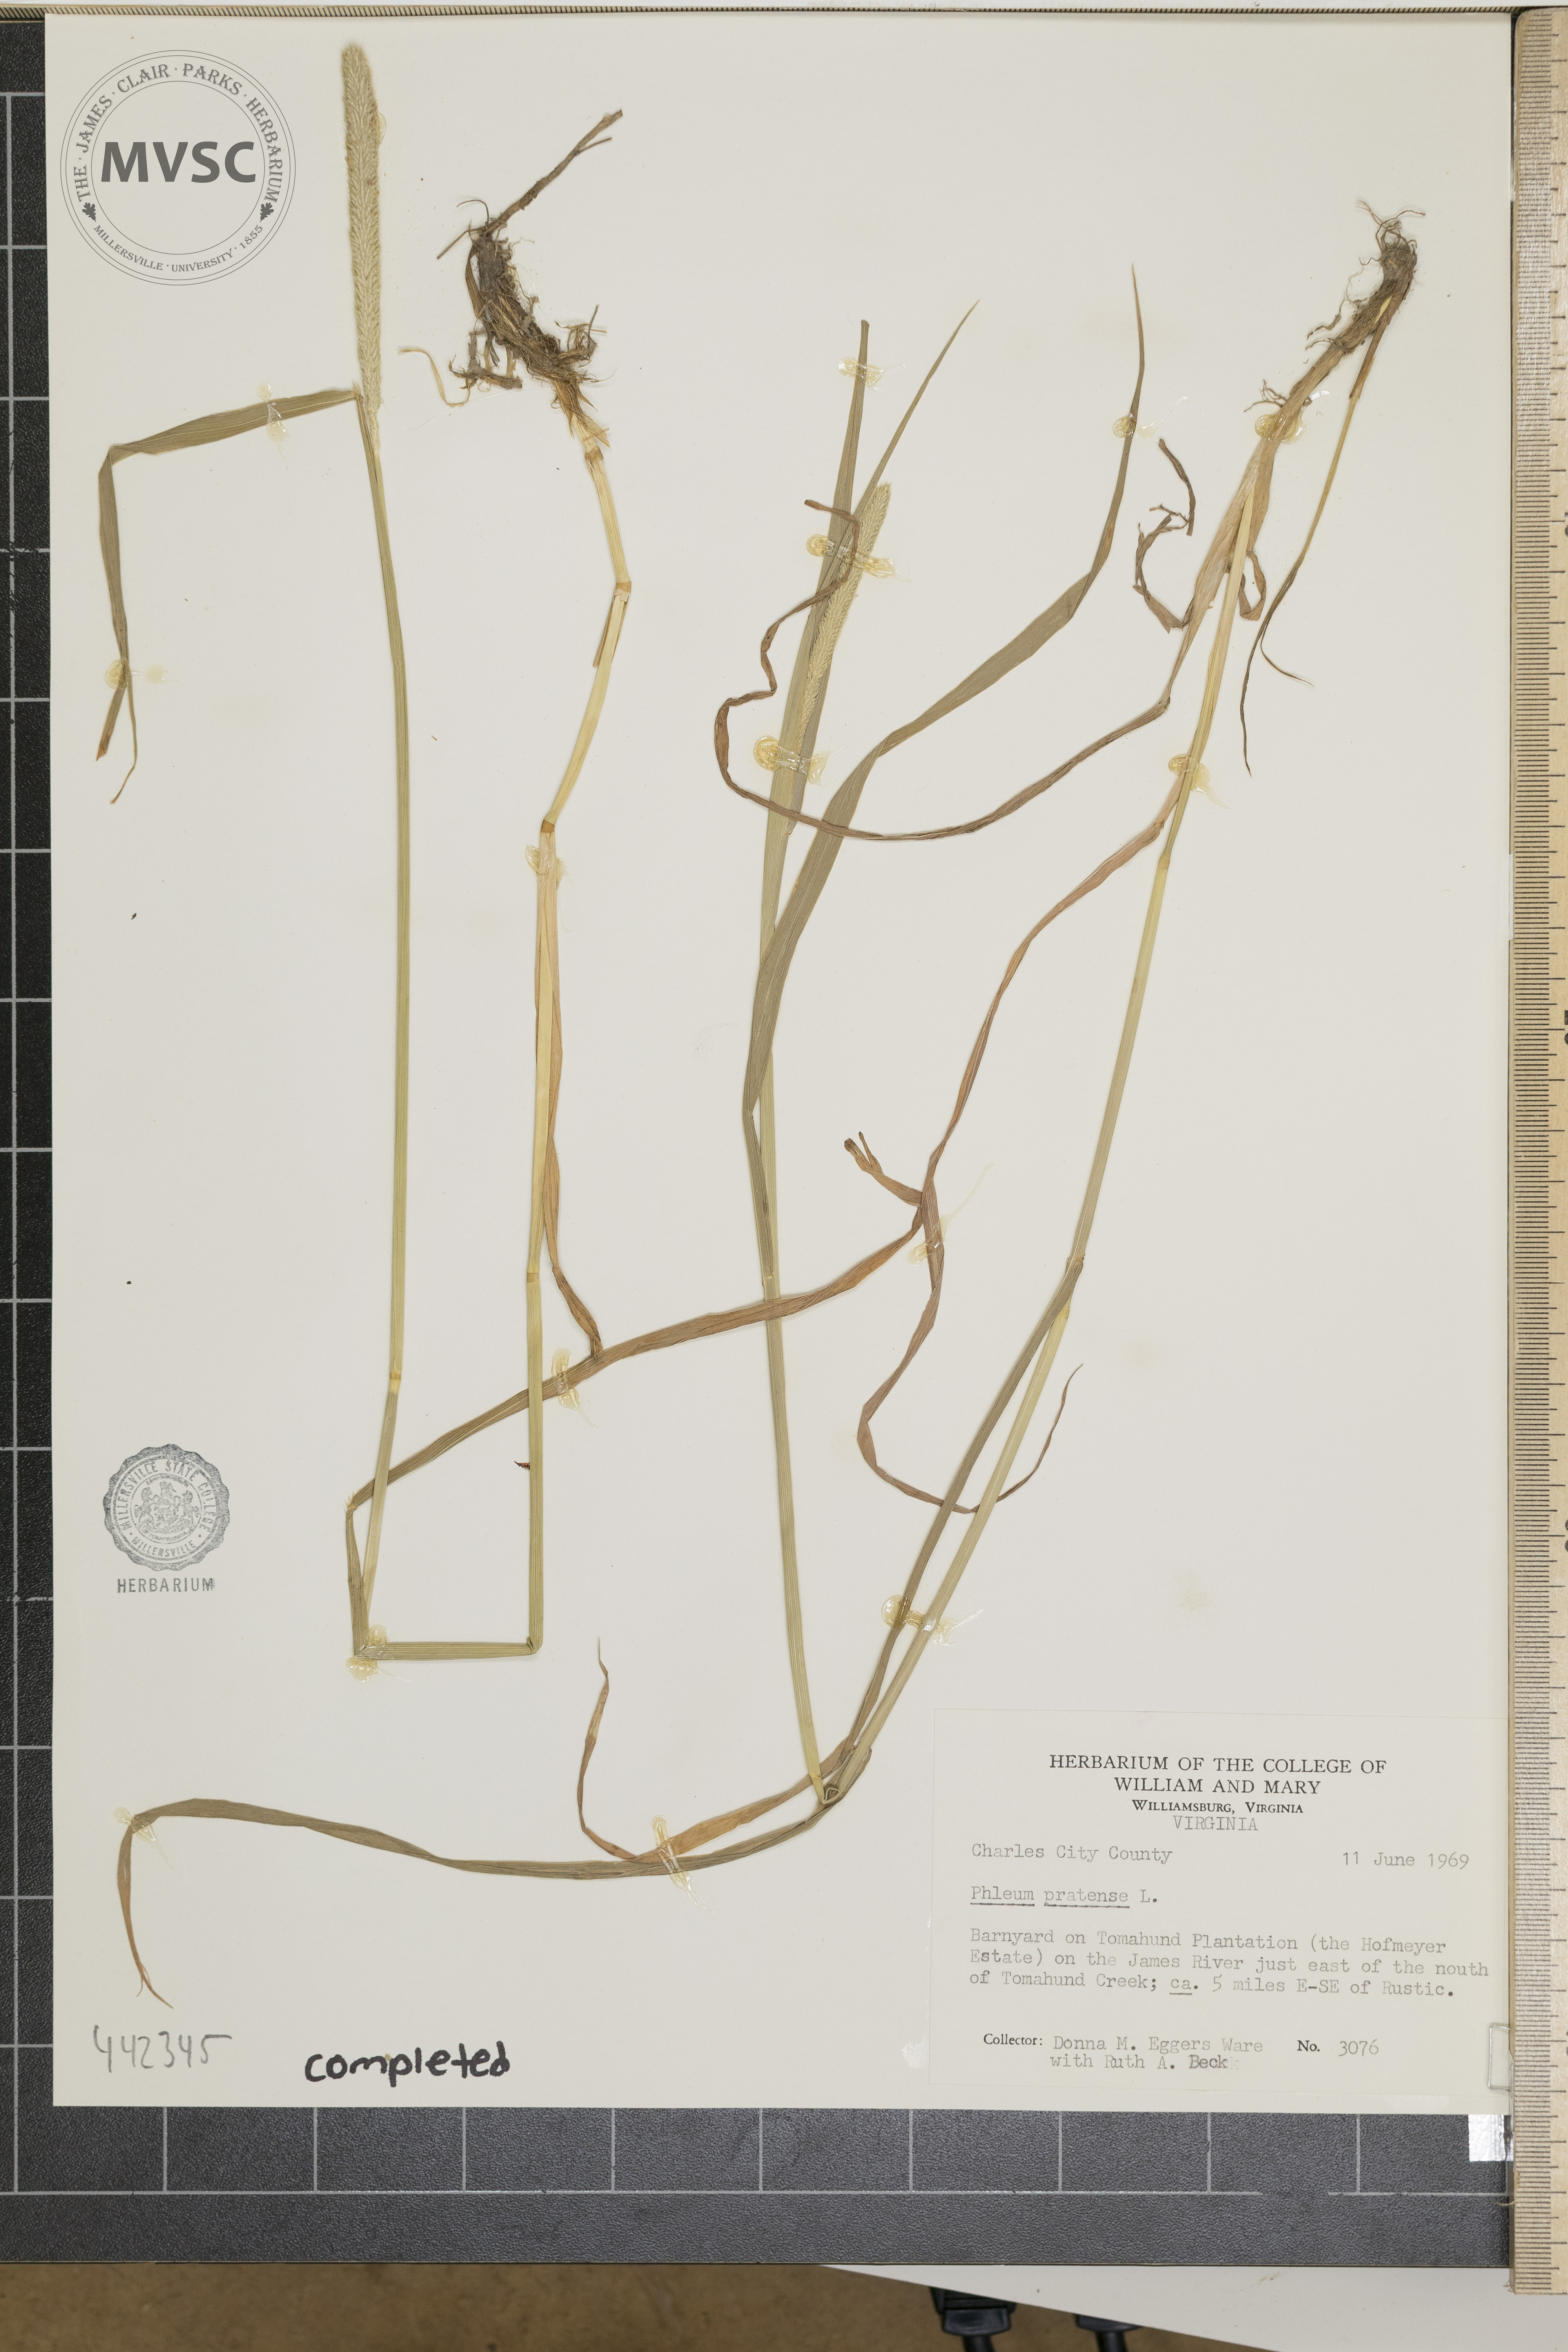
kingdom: Plantae
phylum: Tracheophyta
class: Liliopsida
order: Poales
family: Poaceae
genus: Phleum
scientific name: Phleum pratense
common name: Timothy grass
